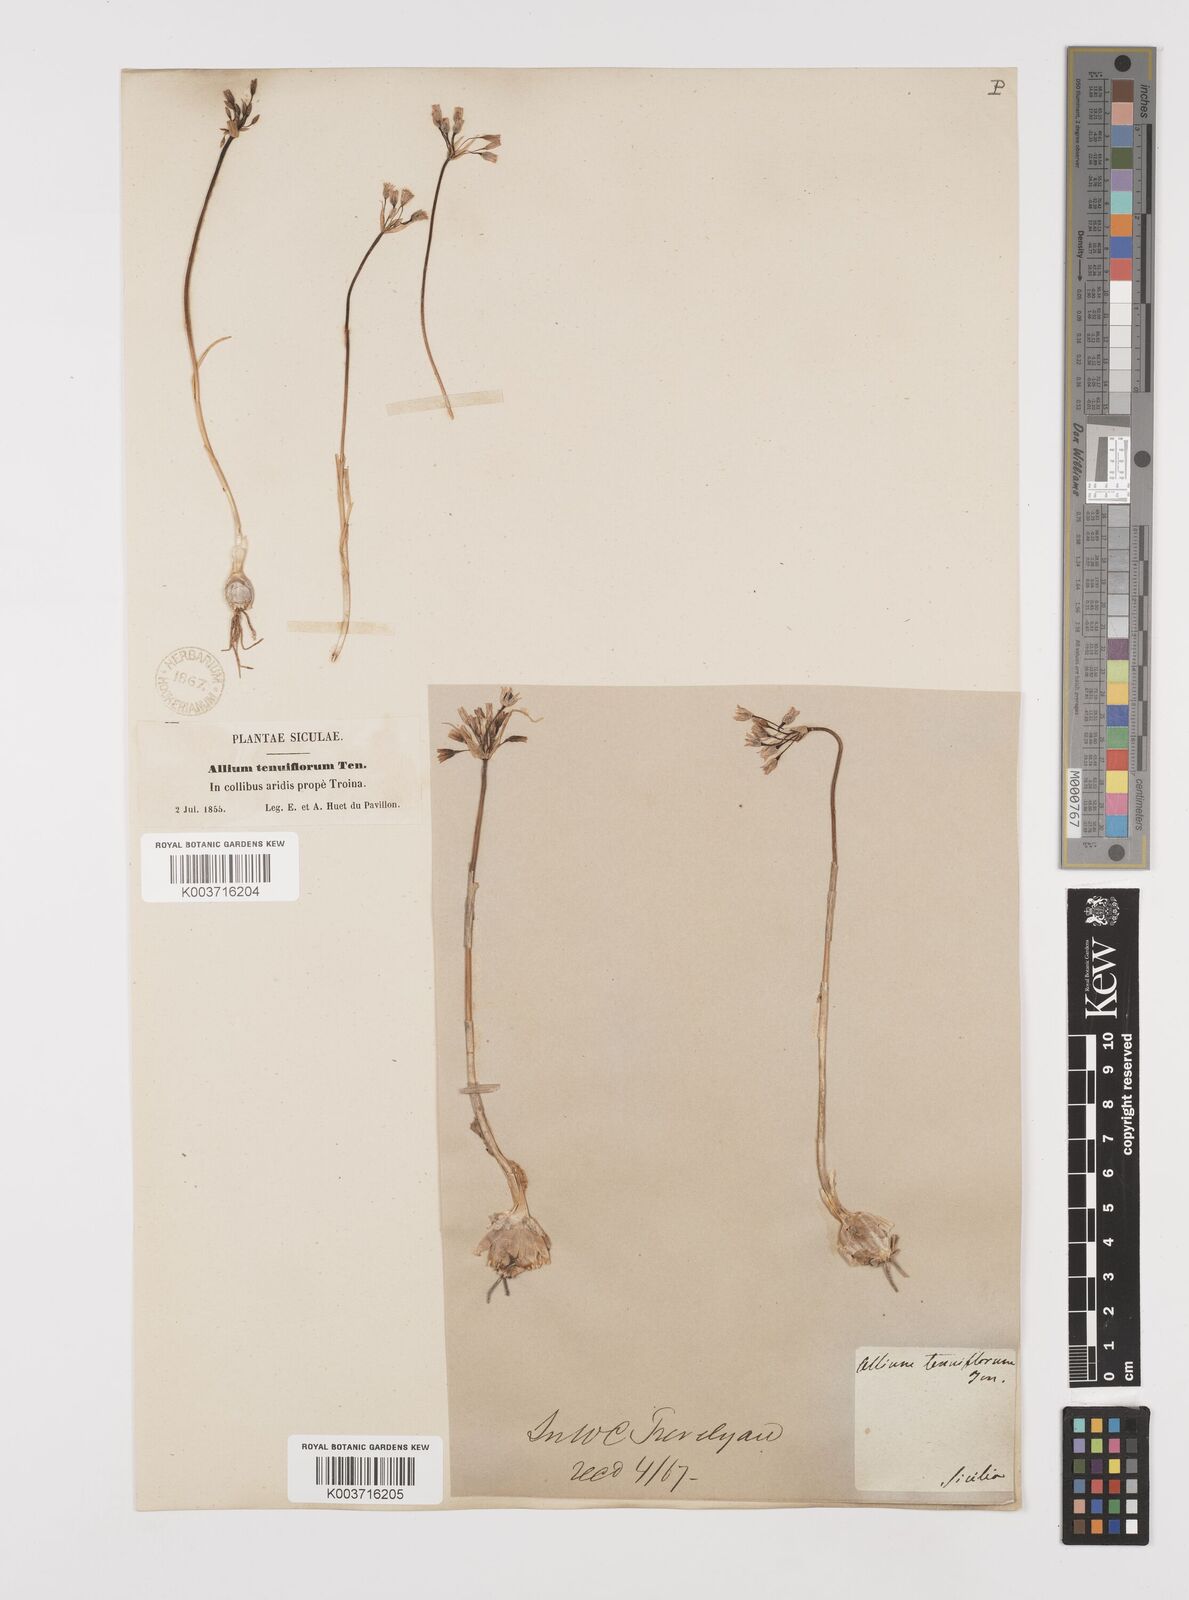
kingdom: Plantae
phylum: Tracheophyta
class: Liliopsida
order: Asparagales
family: Amaryllidaceae
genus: Allium
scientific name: Allium tenuiflorum
